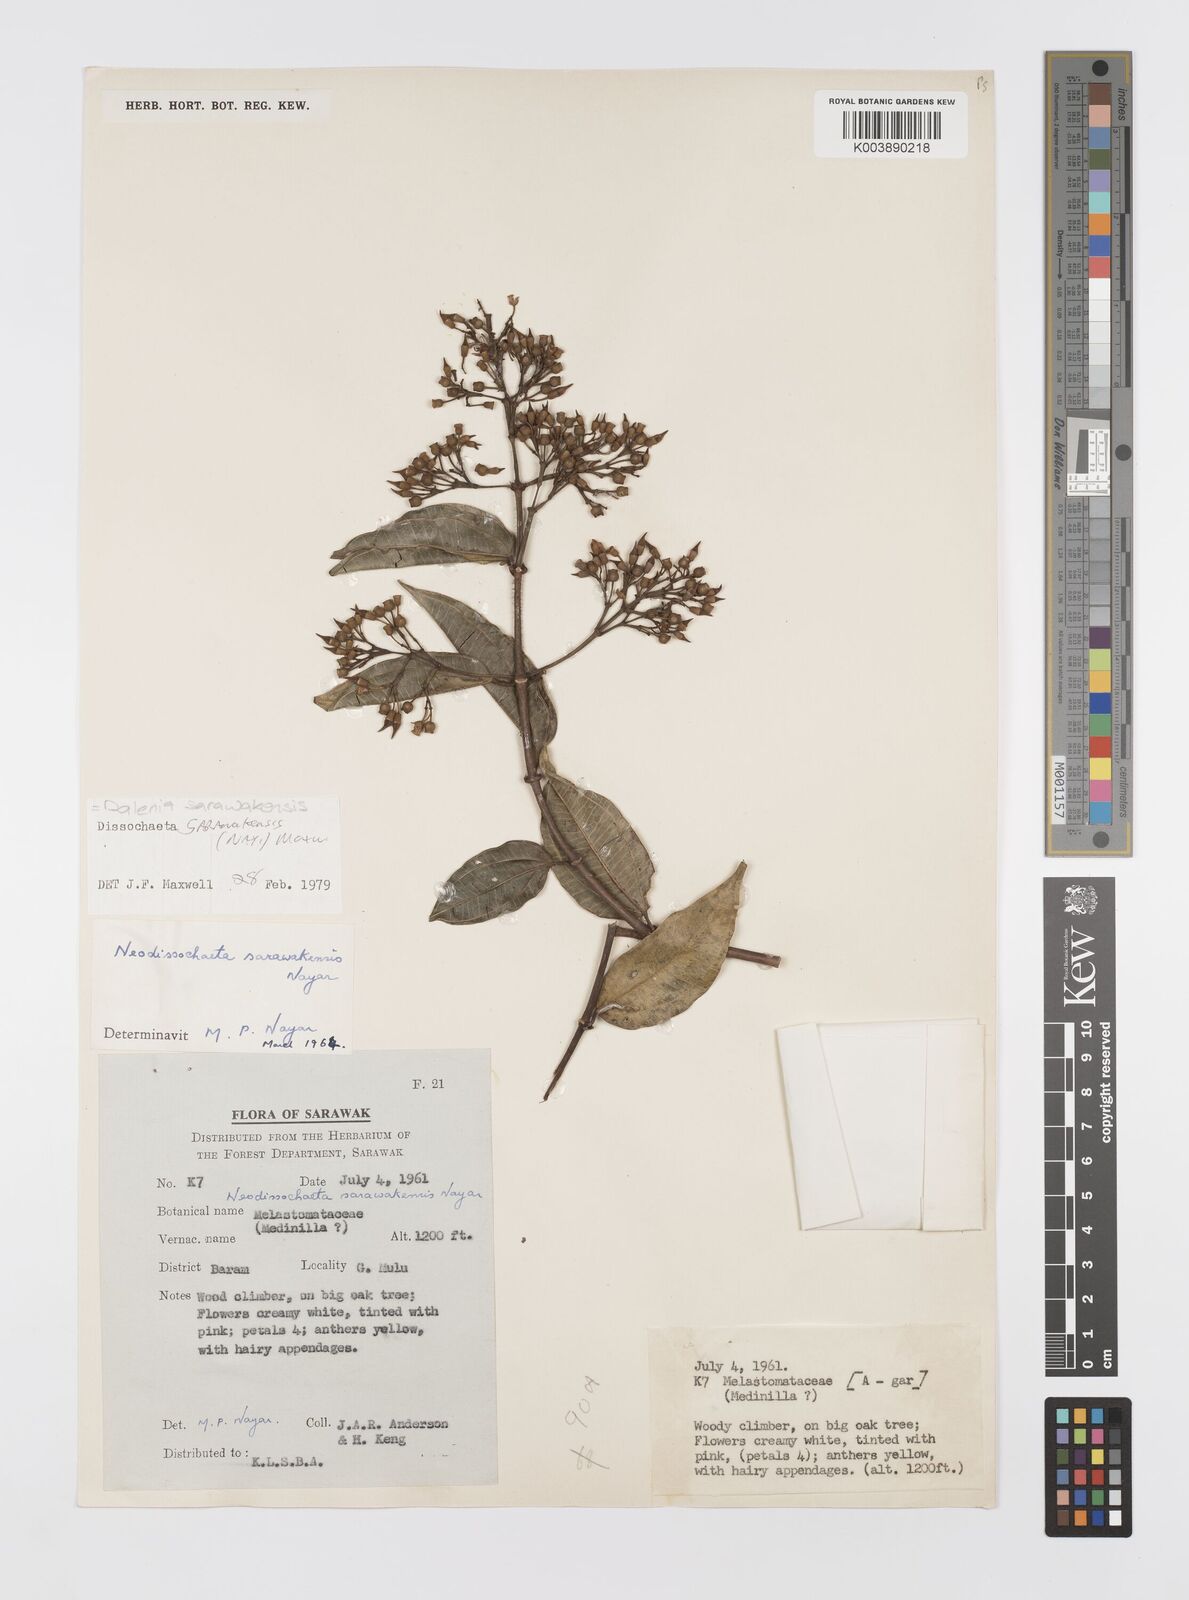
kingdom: Plantae
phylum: Tracheophyta
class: Magnoliopsida
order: Myrtales
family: Melastomataceae
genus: Dalenia
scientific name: Dalenia
